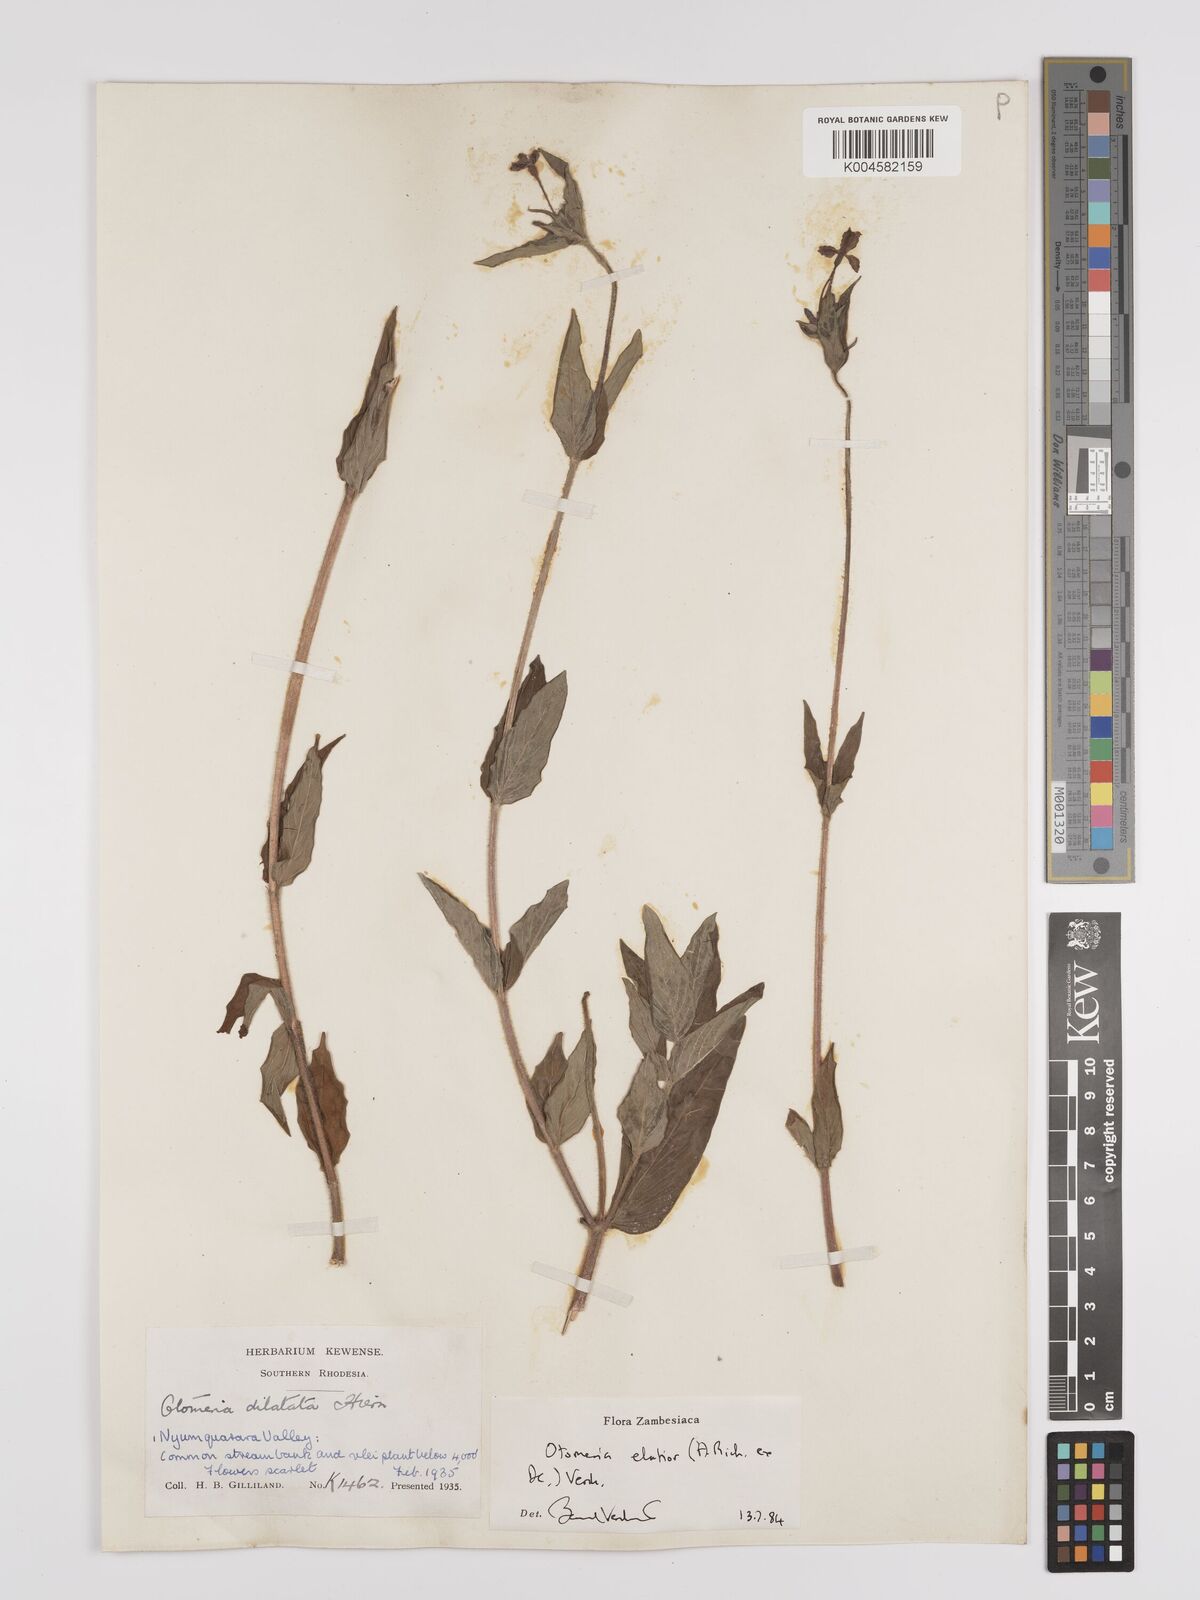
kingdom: Plantae
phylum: Tracheophyta
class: Magnoliopsida
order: Gentianales
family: Rubiaceae
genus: Otomeria
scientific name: Otomeria elatior
